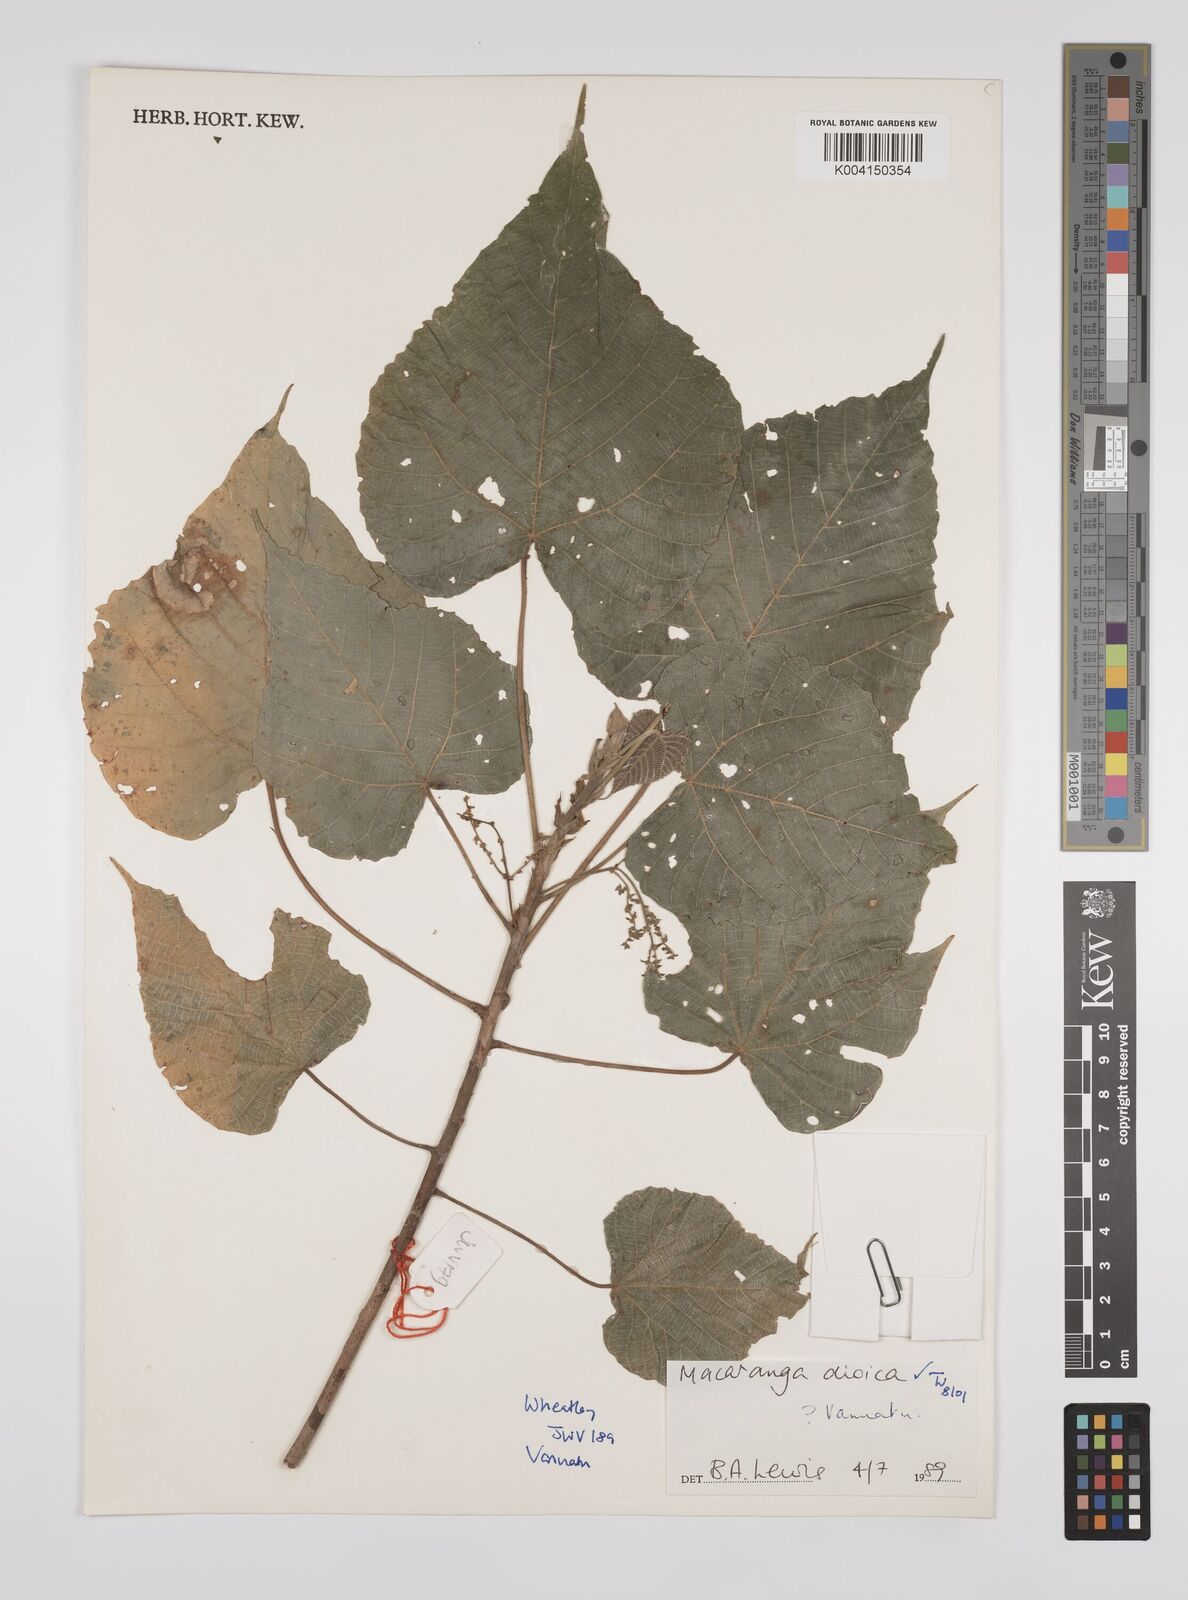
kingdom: Plantae
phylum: Tracheophyta
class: Magnoliopsida
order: Malpighiales
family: Euphorbiaceae
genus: Macaranga
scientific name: Macaranga dioica
